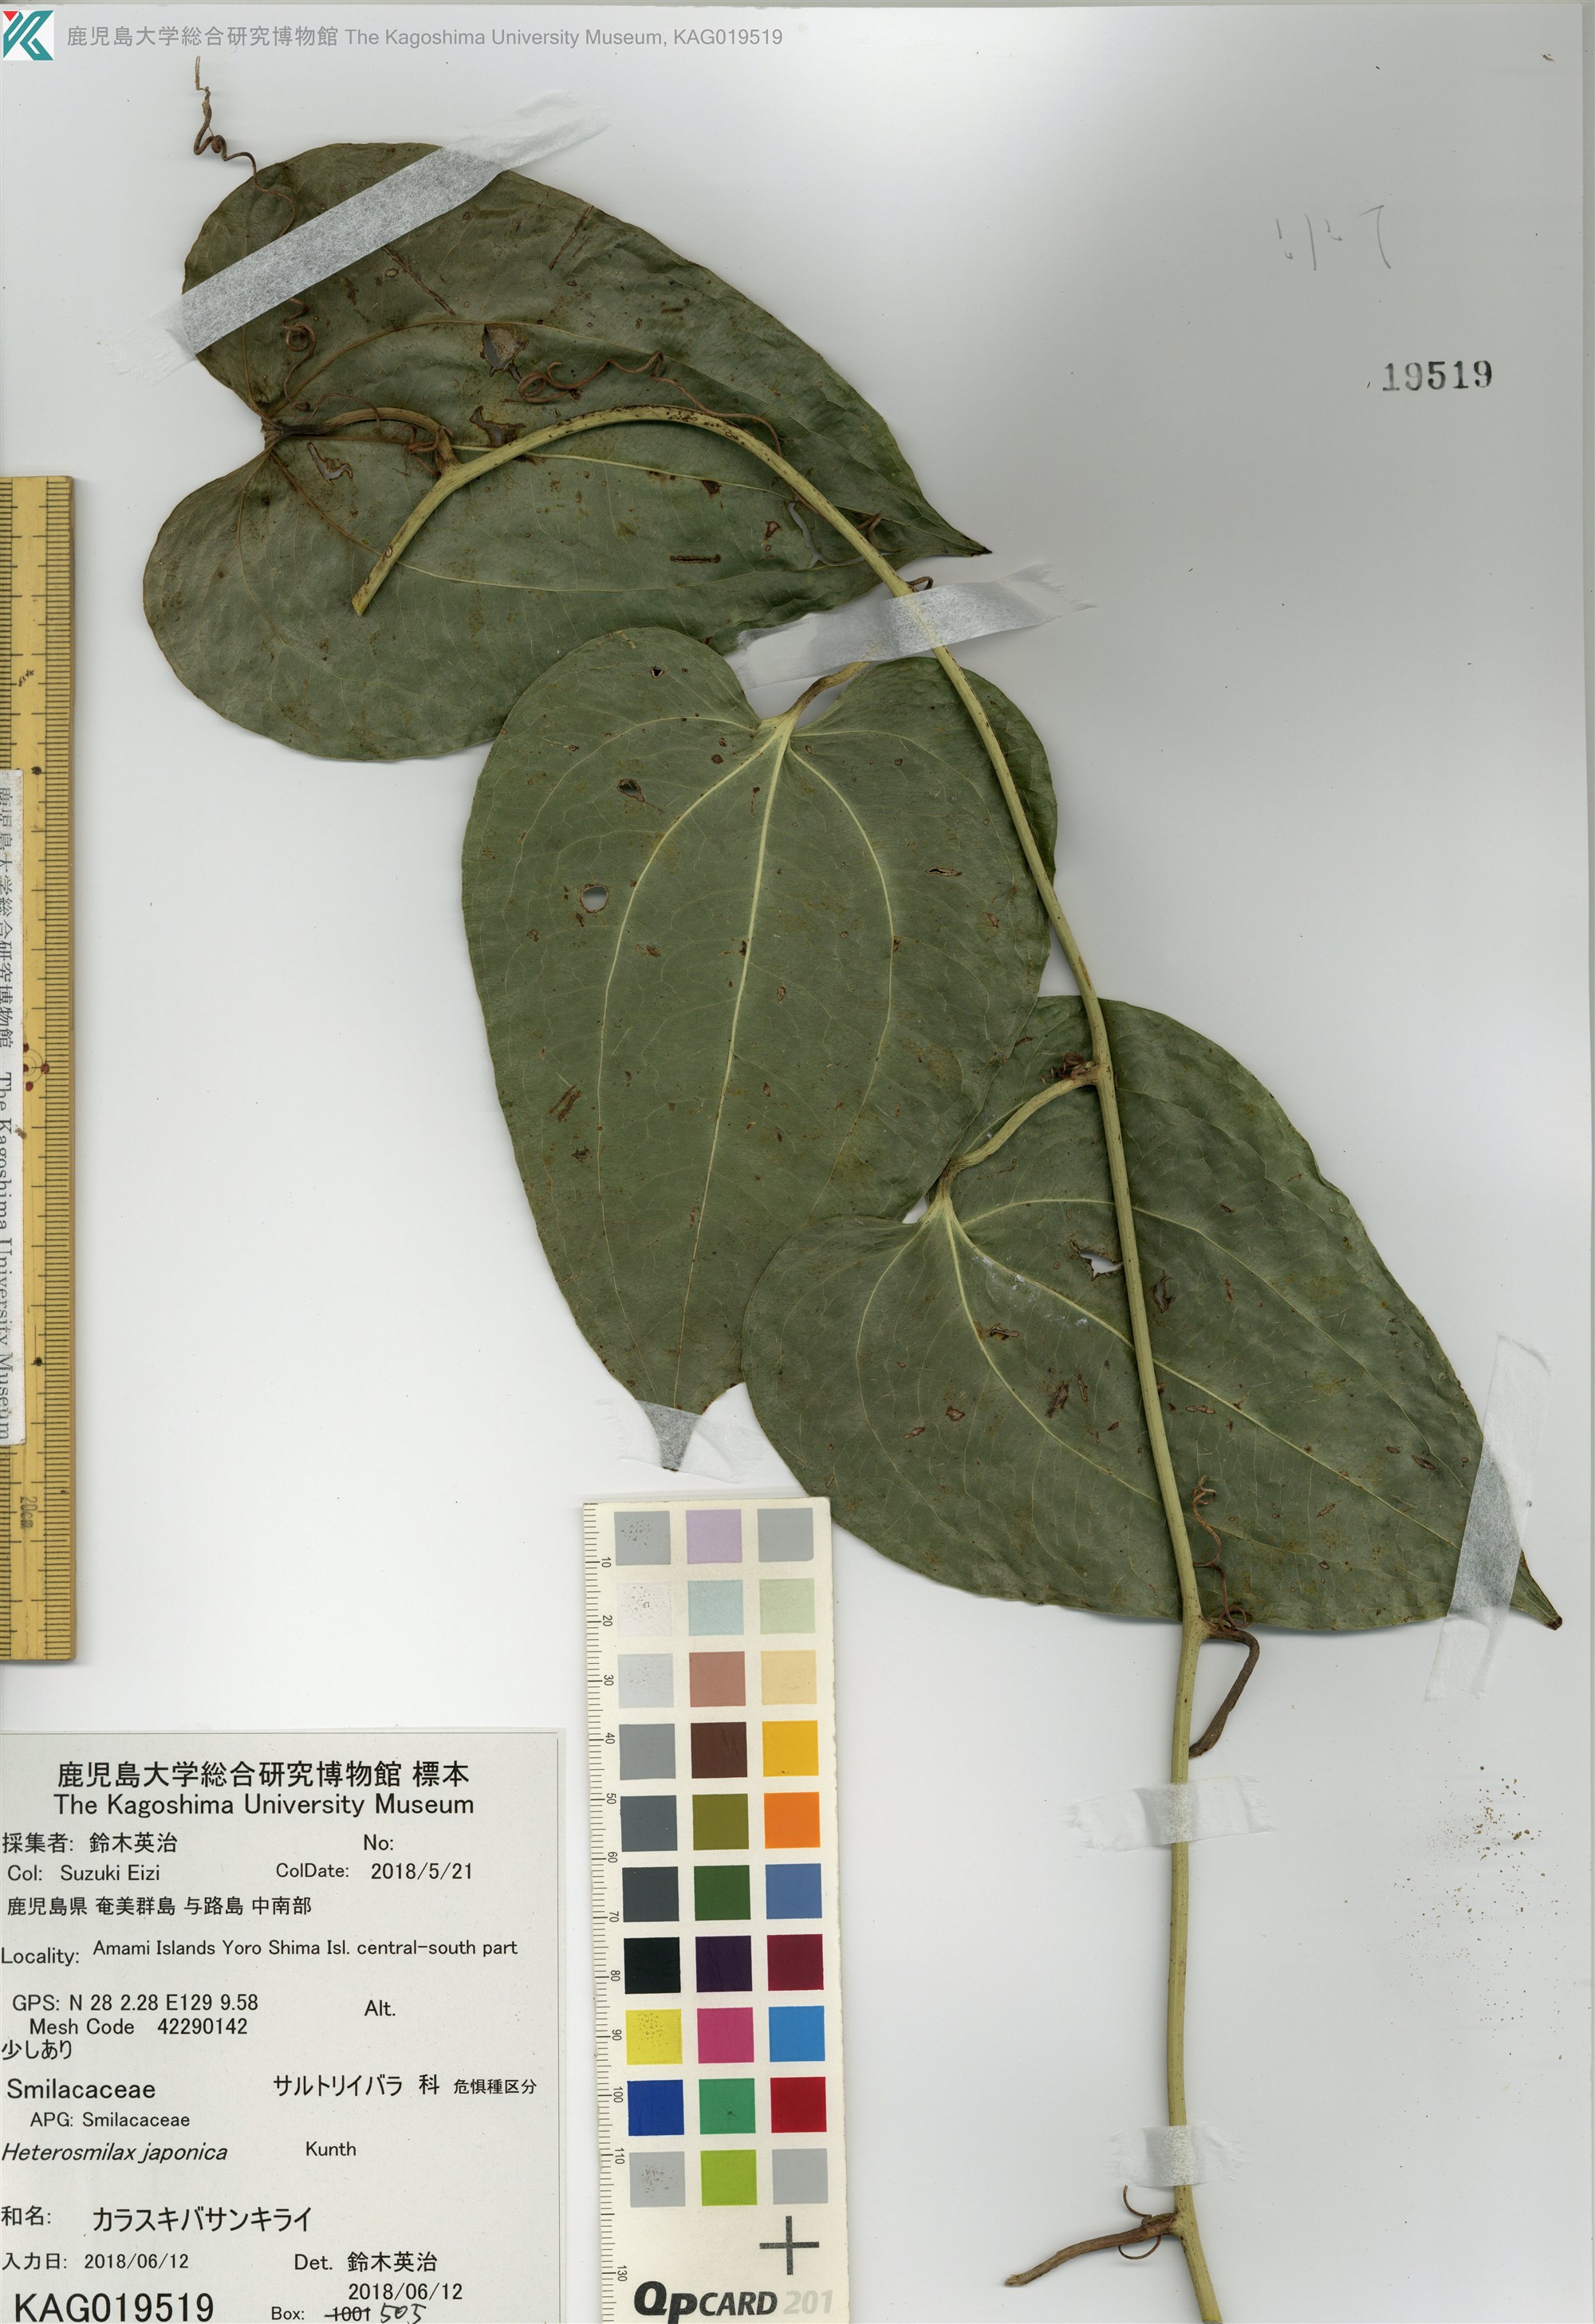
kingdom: Plantae
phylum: Tracheophyta
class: Liliopsida
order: Liliales
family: Smilacaceae
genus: Smilax
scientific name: Smilax insularis
